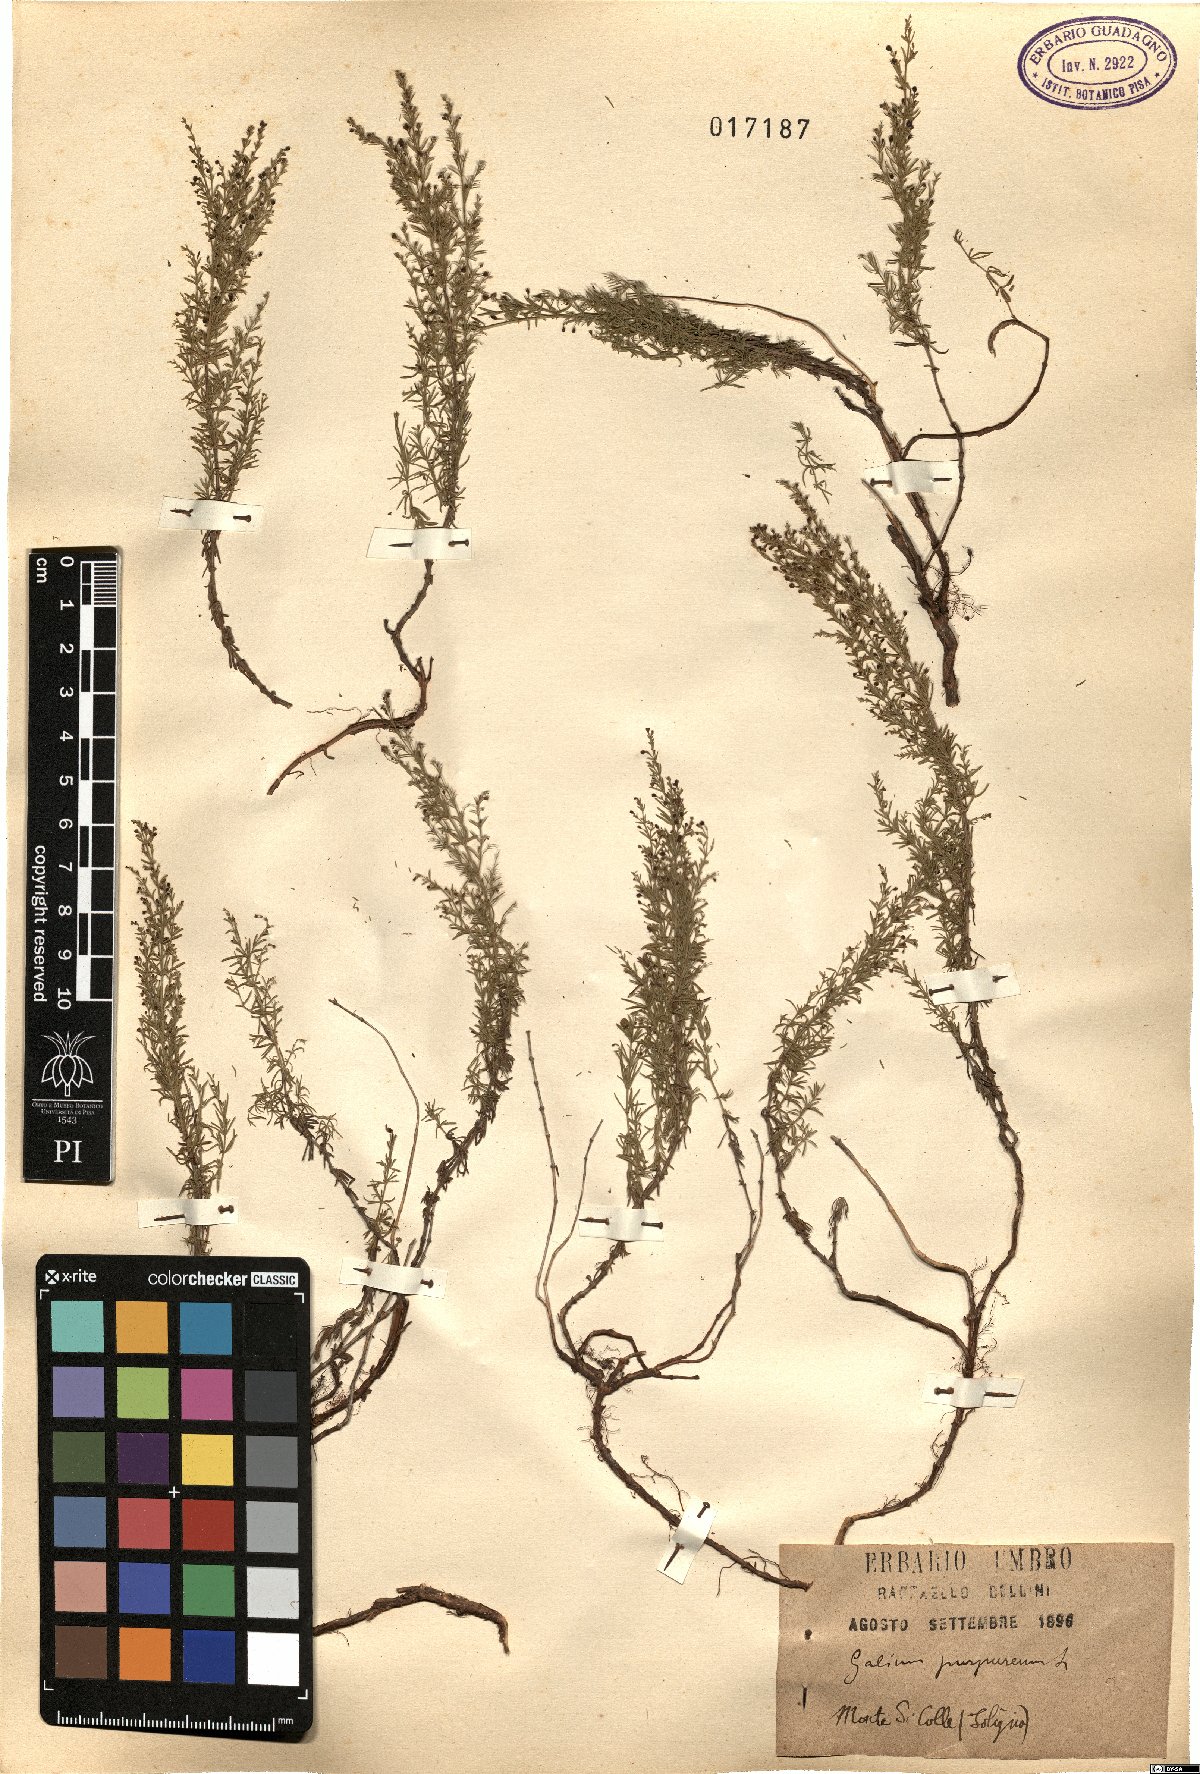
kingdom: Plantae
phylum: Tracheophyta
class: Magnoliopsida
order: Gentianales
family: Rubiaceae
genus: Thliphthisa
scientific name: Thliphthisa purpurea
